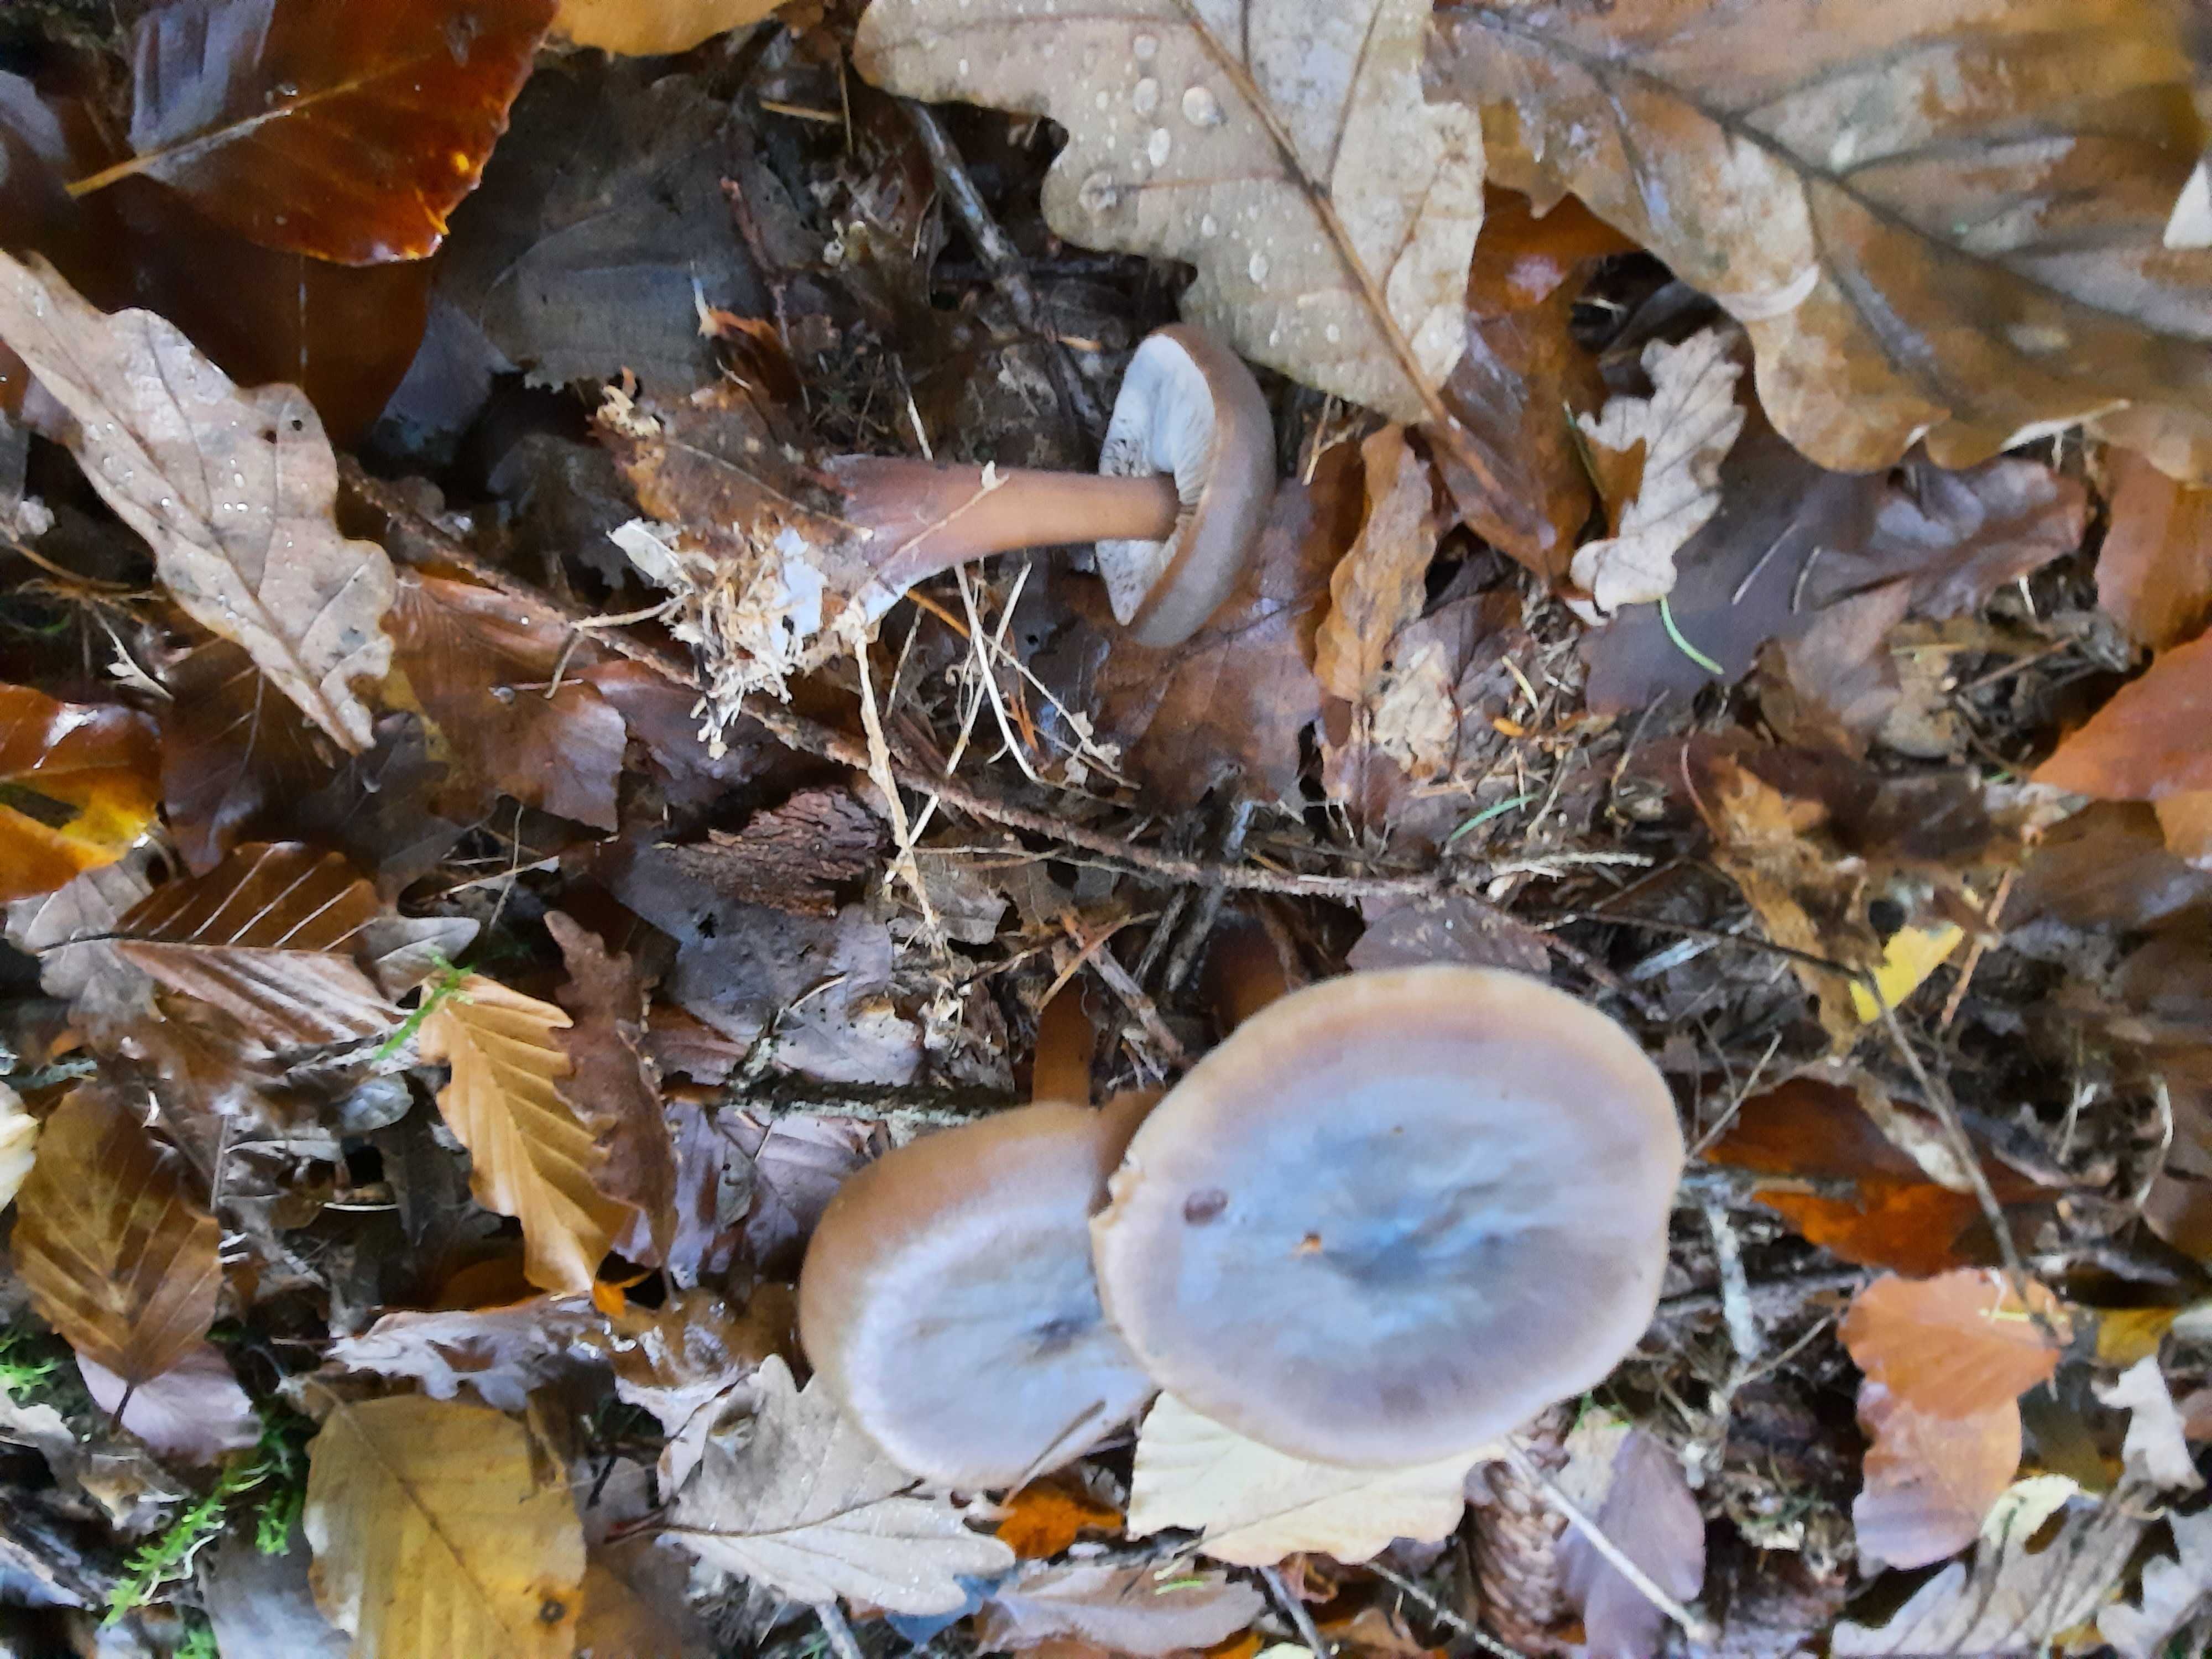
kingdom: Fungi
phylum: Basidiomycota
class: Agaricomycetes
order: Agaricales
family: Omphalotaceae
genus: Rhodocollybia
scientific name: Rhodocollybia asema
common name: horngrå fladhat
